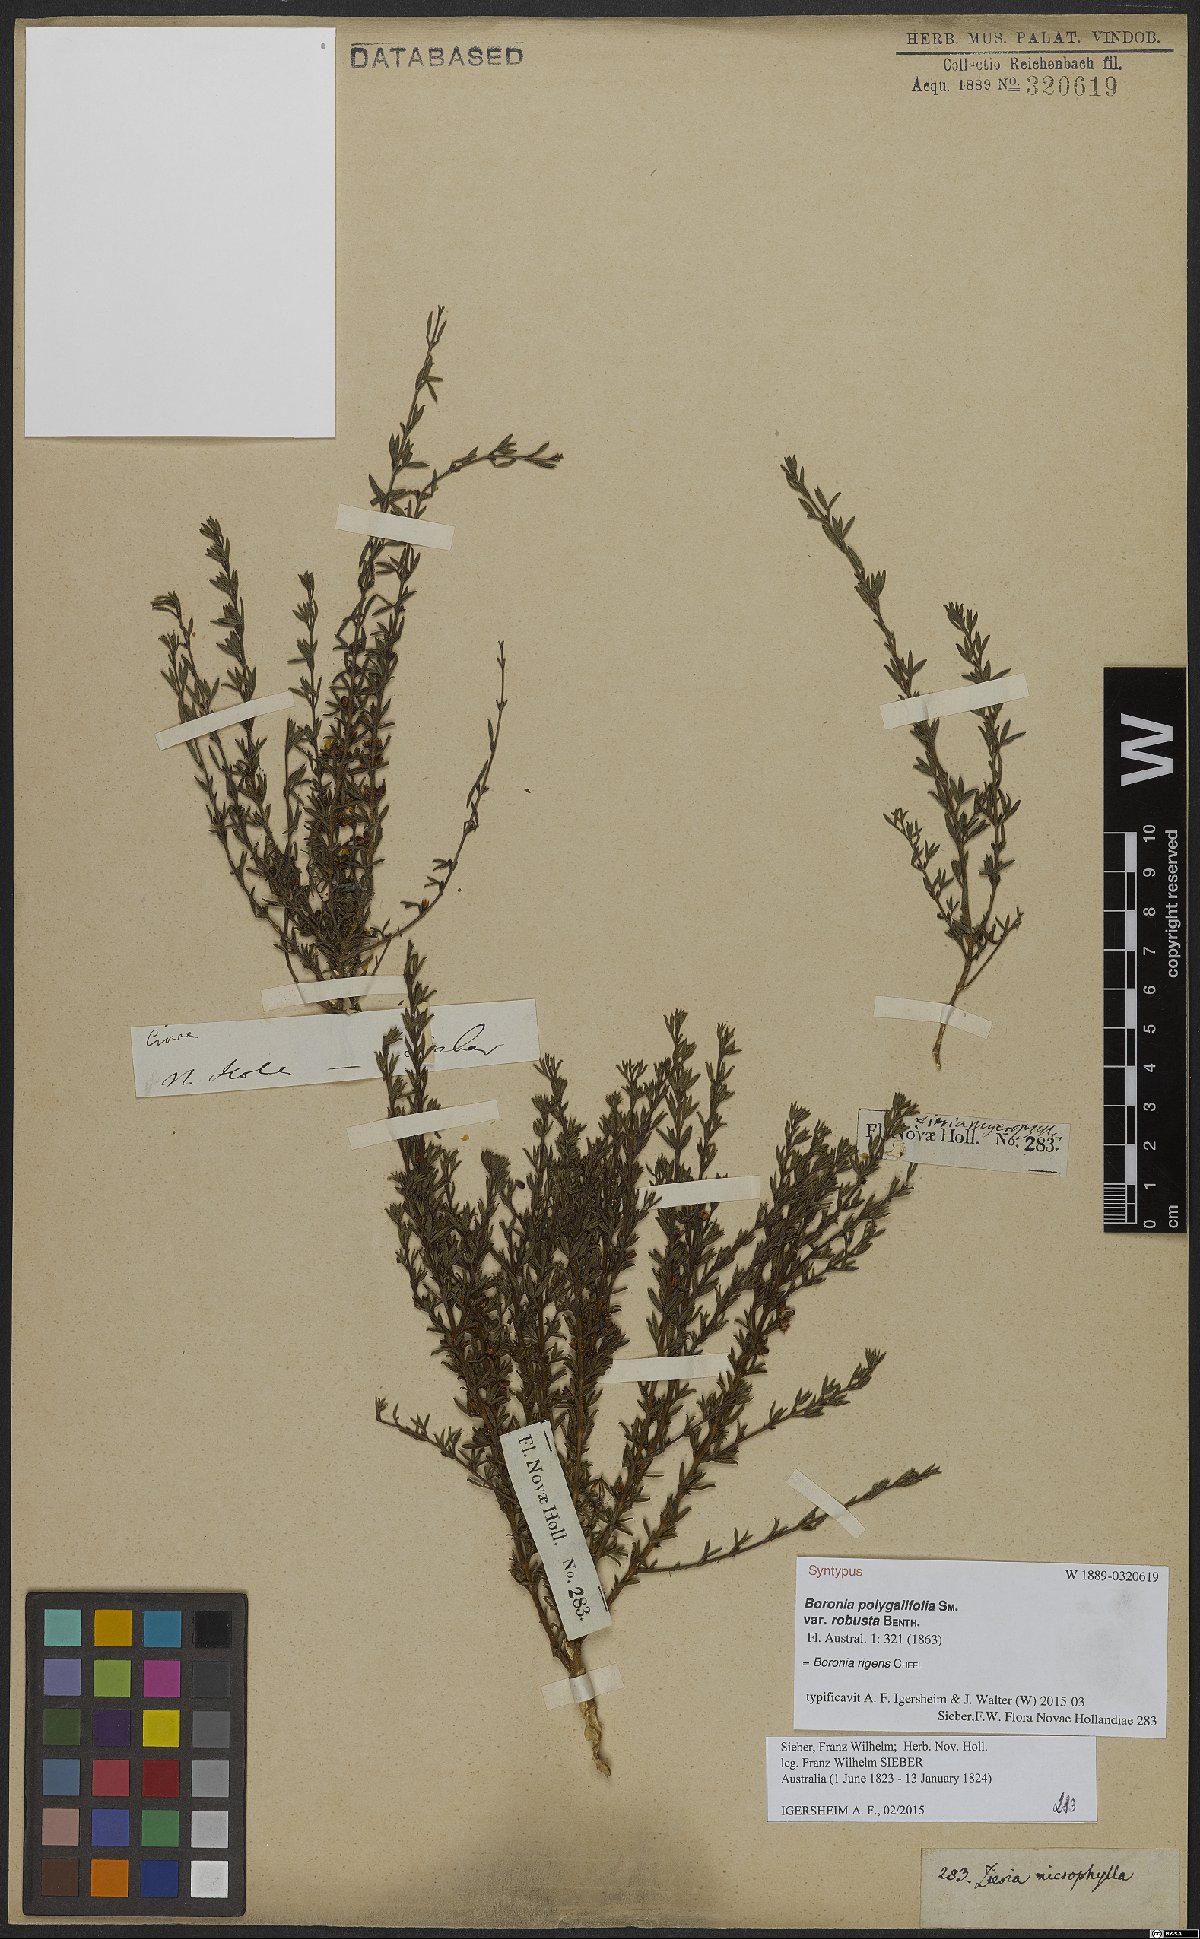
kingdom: Plantae
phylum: Tracheophyta
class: Magnoliopsida
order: Sapindales
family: Rutaceae
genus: Cyanothamnus
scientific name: Cyanothamnus rigens
